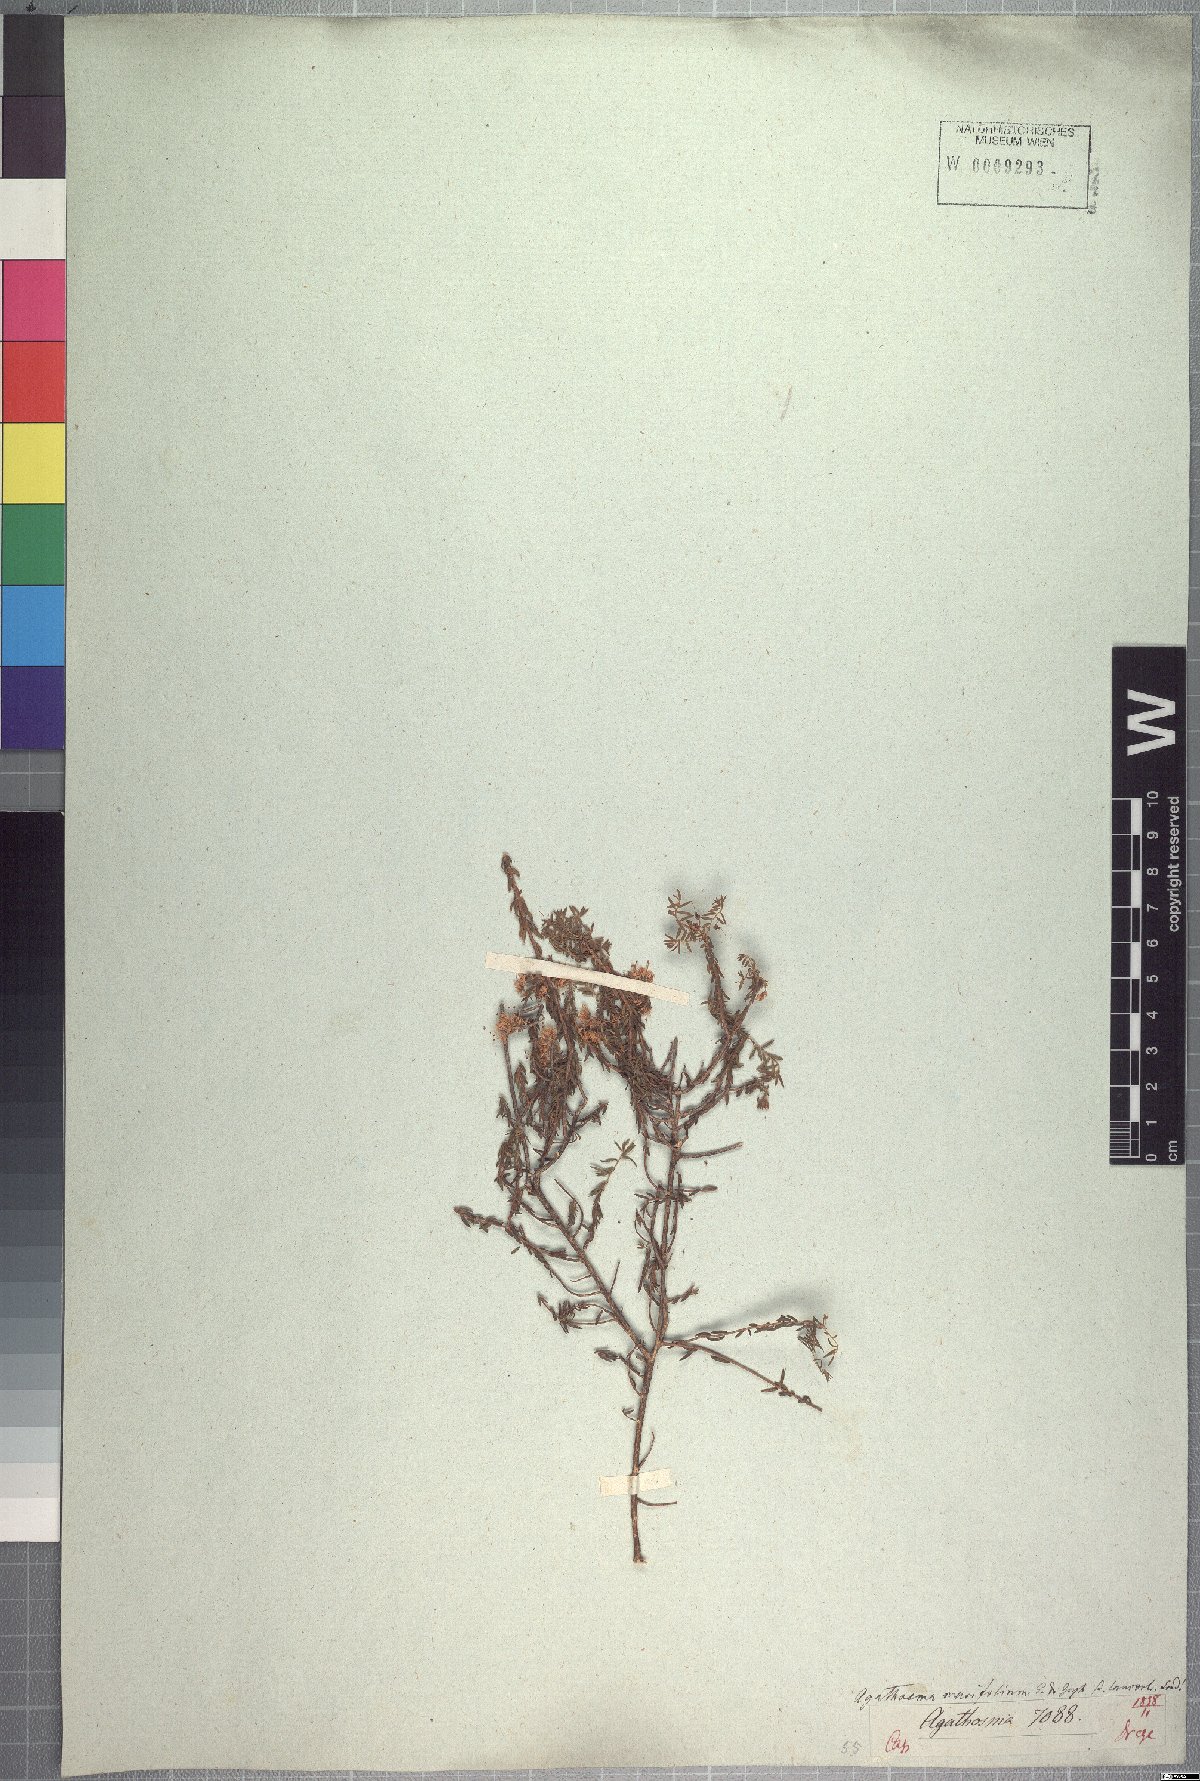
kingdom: Plantae
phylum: Tracheophyta
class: Magnoliopsida
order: Sapindales
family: Rutaceae
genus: Agathosma
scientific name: Agathosma marifolia
